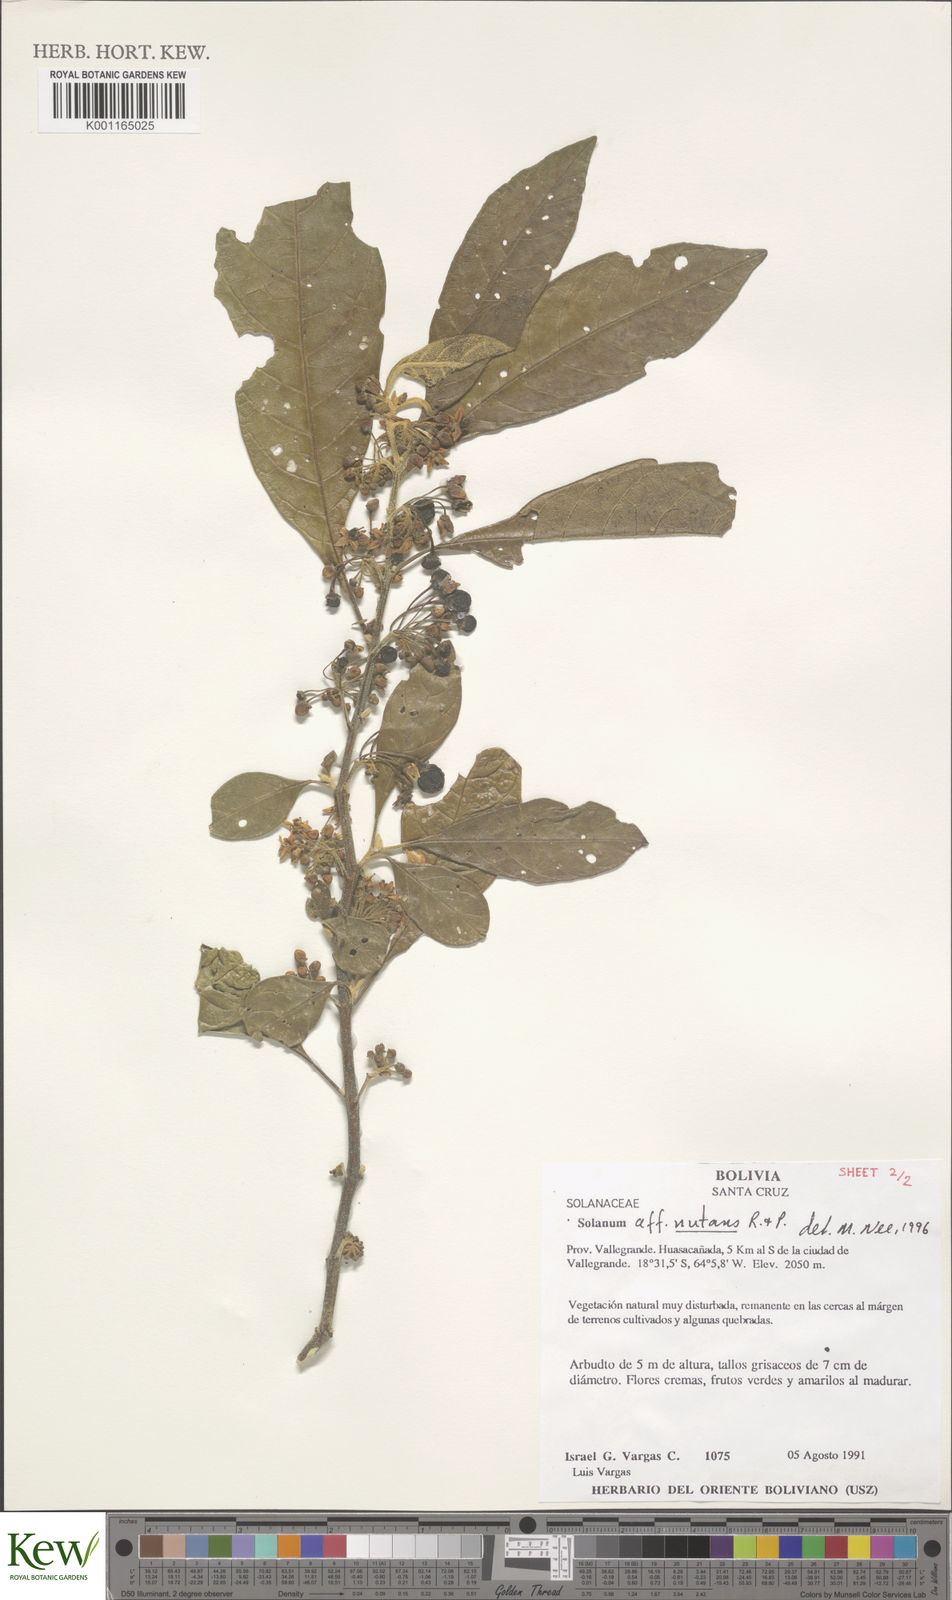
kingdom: Plantae
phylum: Tracheophyta
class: Magnoliopsida
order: Solanales
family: Solanaceae
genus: Solanum
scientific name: Solanum nutans
